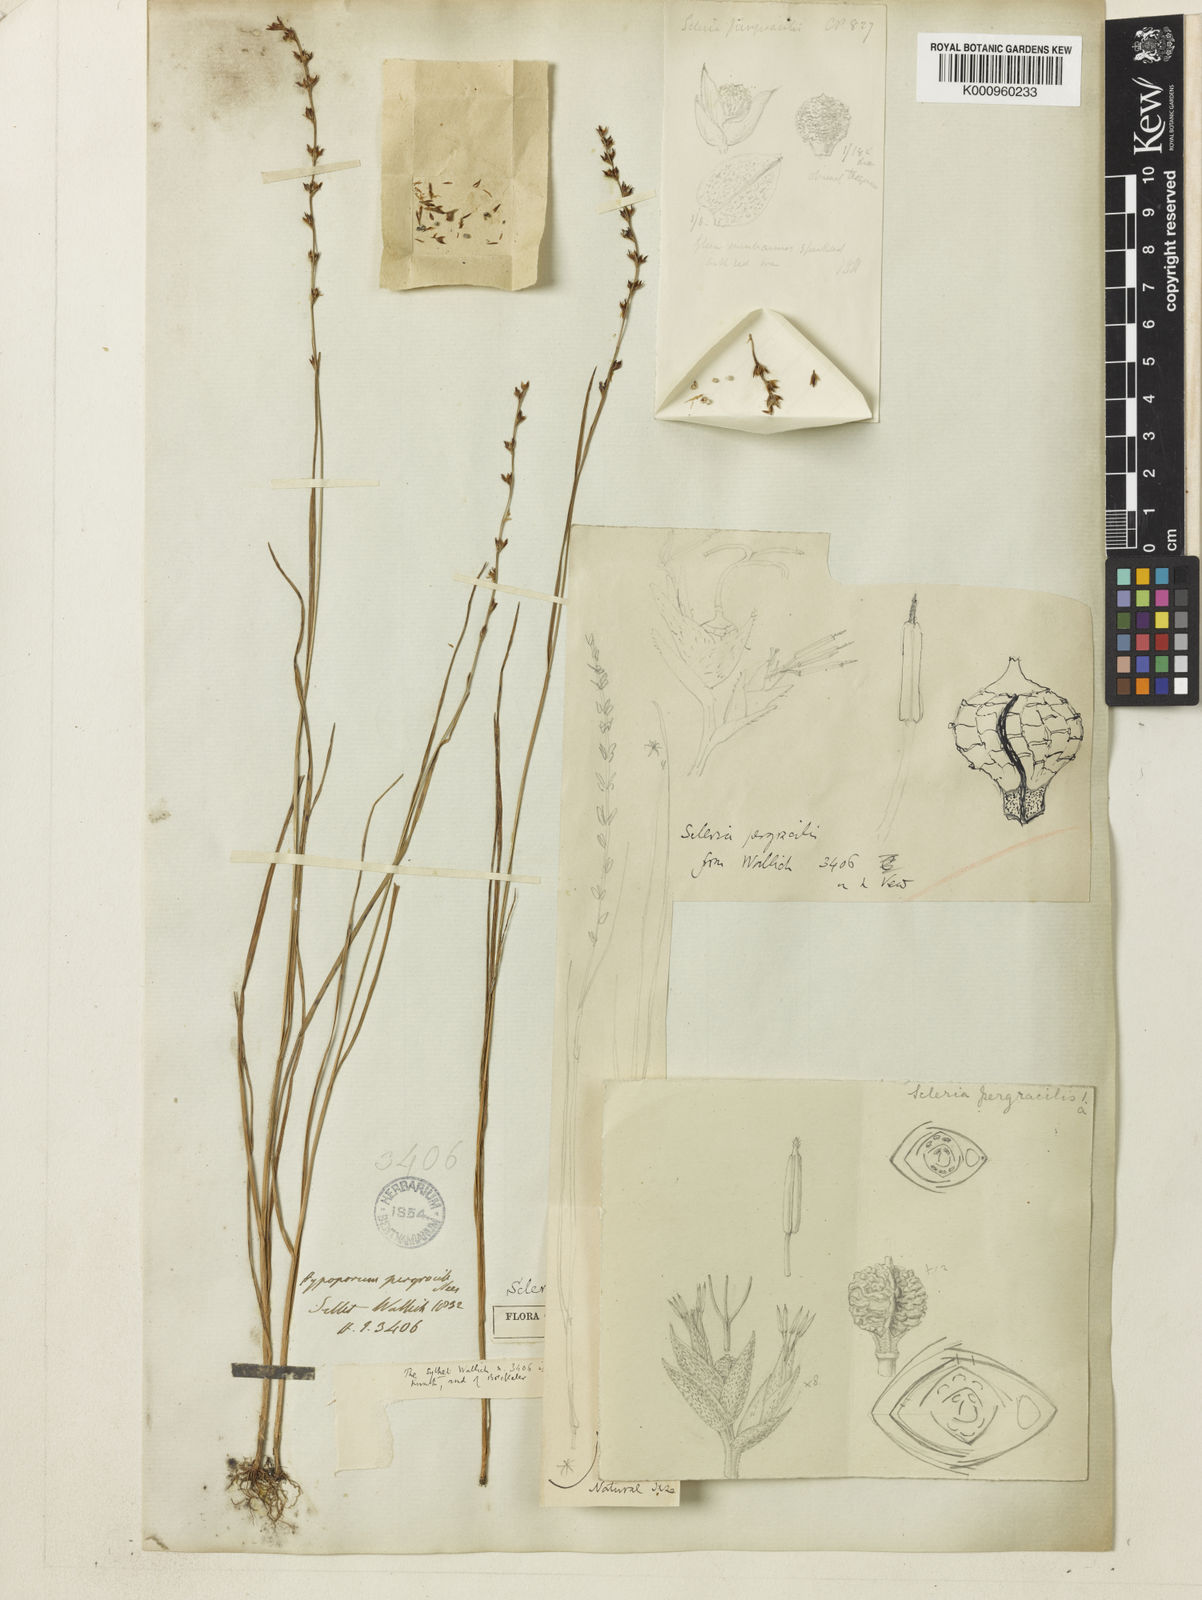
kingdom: Plantae
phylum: Tracheophyta
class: Liliopsida
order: Poales
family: Cyperaceae
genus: Scleria
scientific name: Scleria pergracilis
